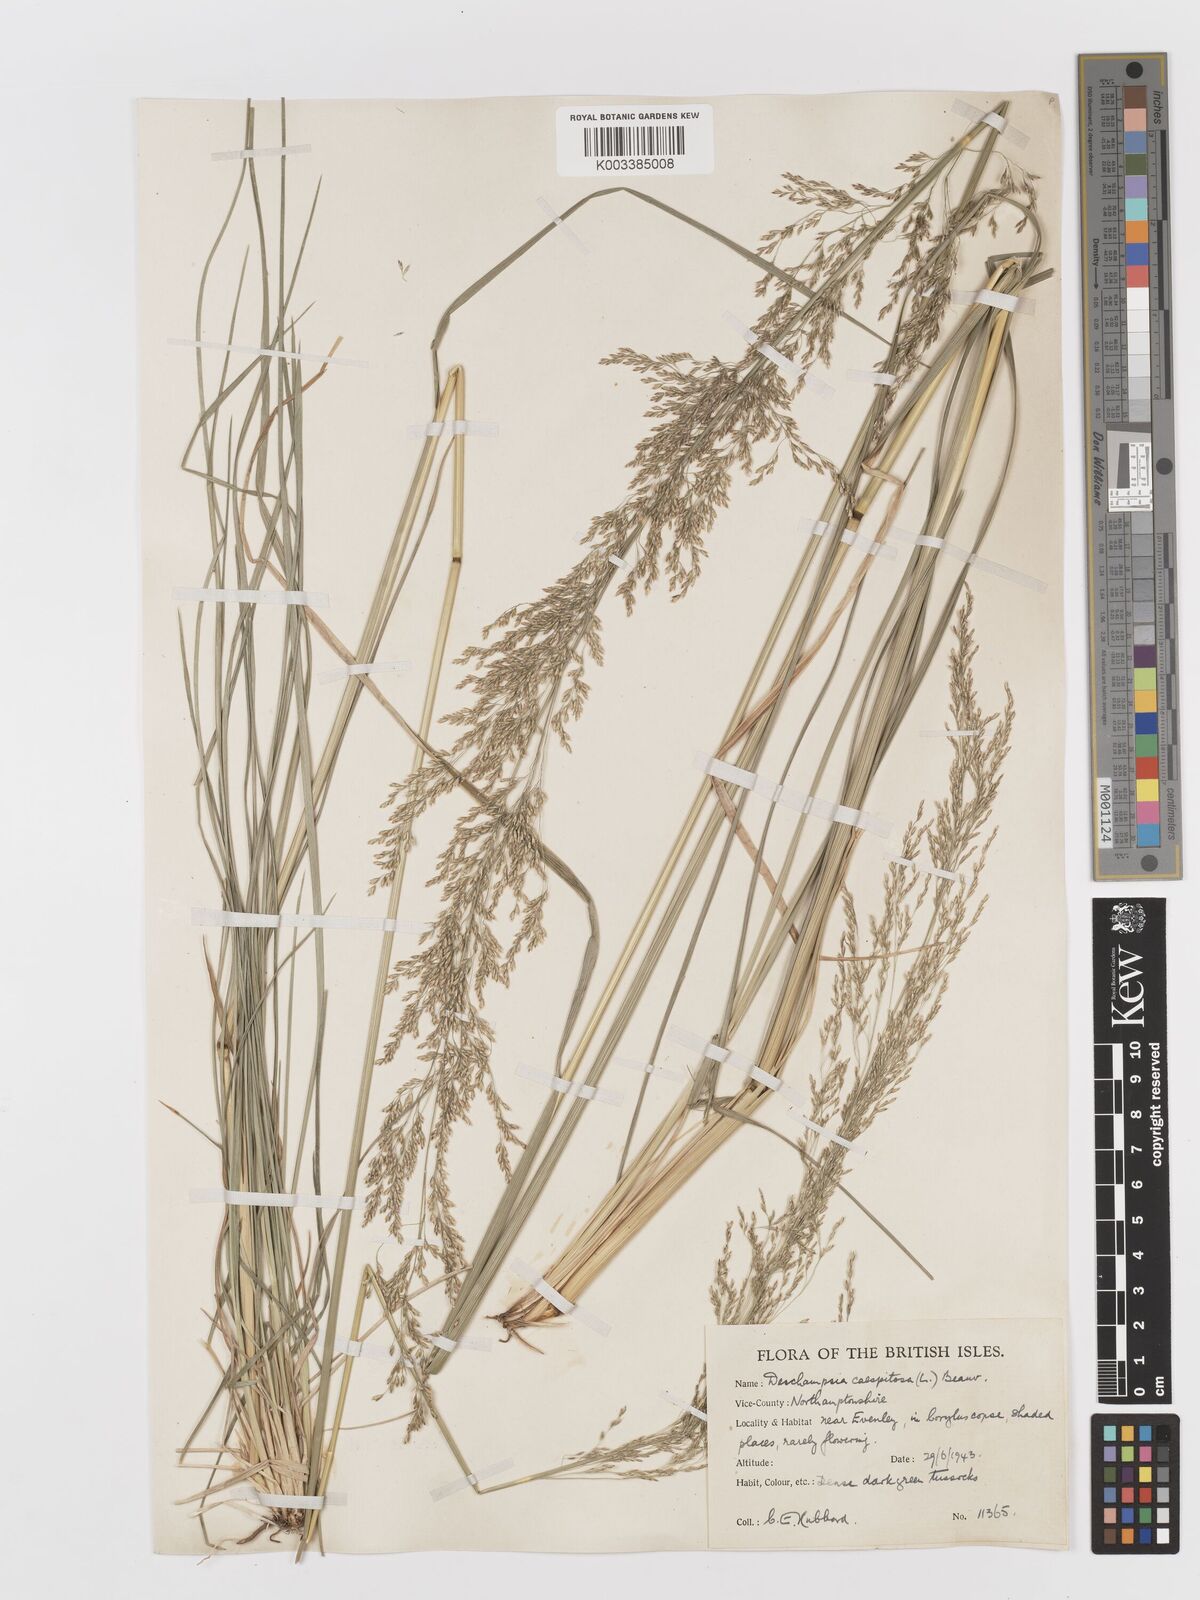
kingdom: Plantae
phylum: Tracheophyta
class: Liliopsida
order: Poales
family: Poaceae
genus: Deschampsia
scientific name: Deschampsia cespitosa
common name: Tufted hair-grass
